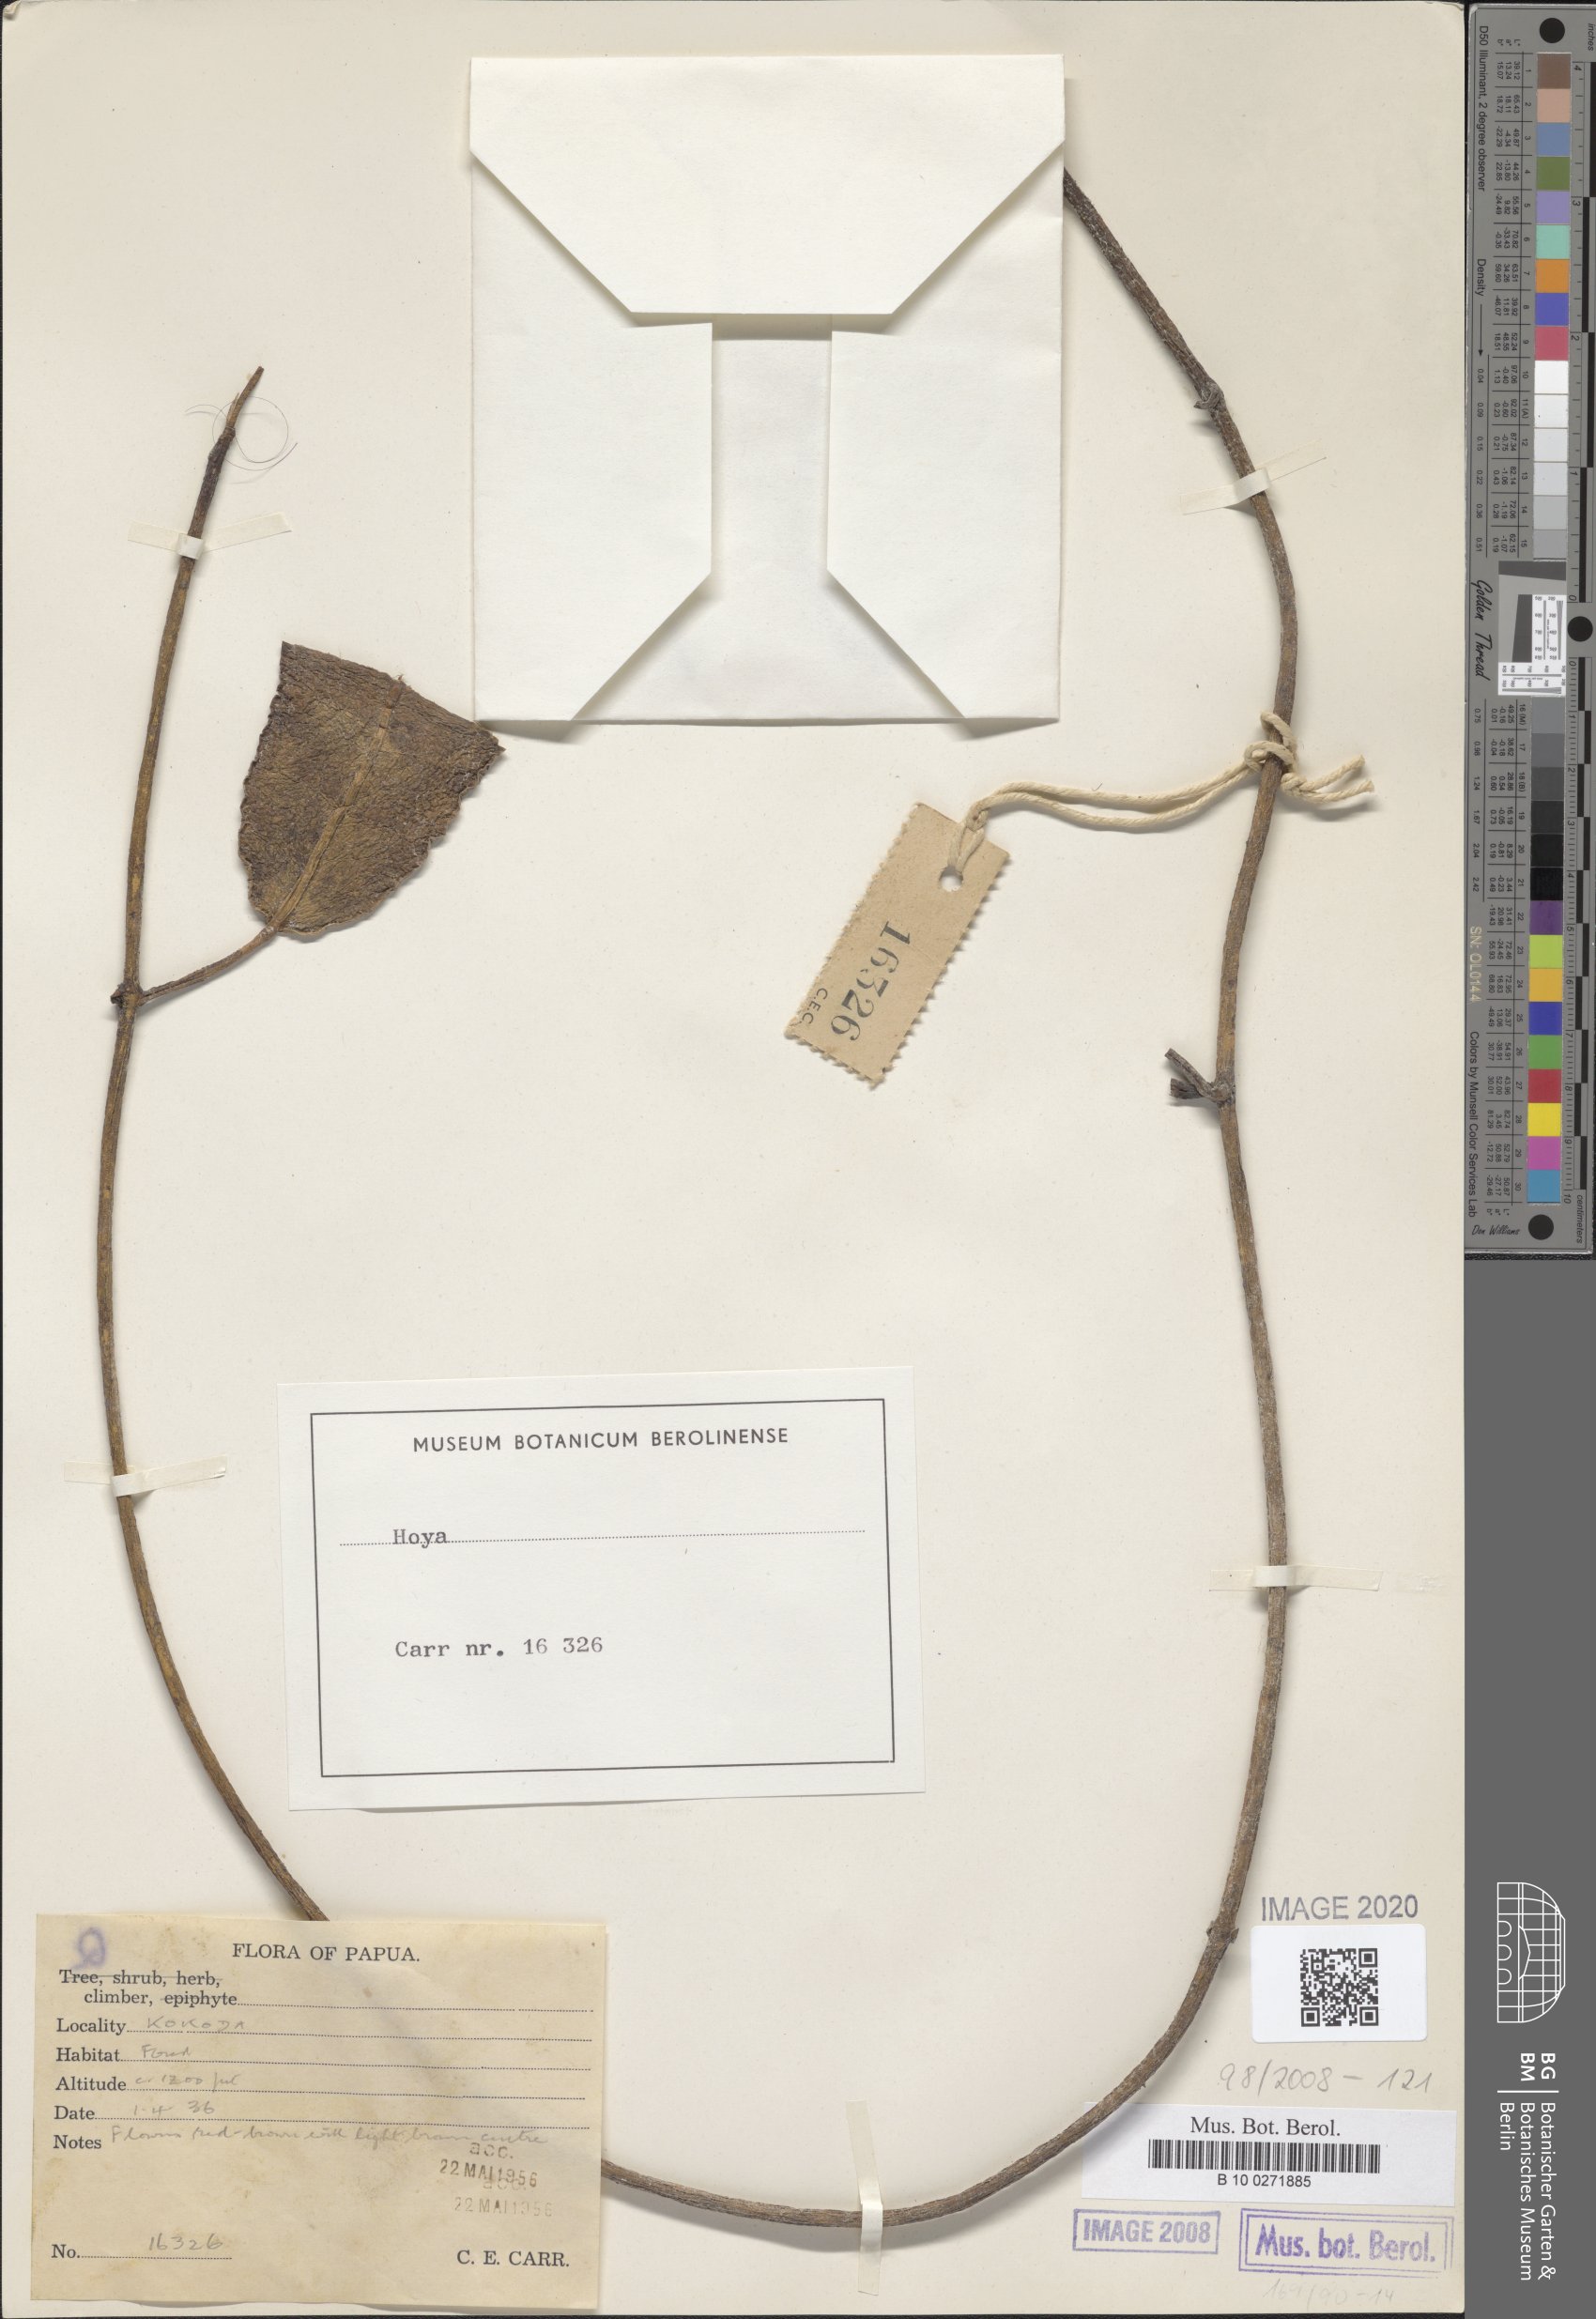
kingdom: Plantae
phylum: Tracheophyta
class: Magnoliopsida
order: Gentianales
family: Apocynaceae
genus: Hoya
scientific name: Hoya
